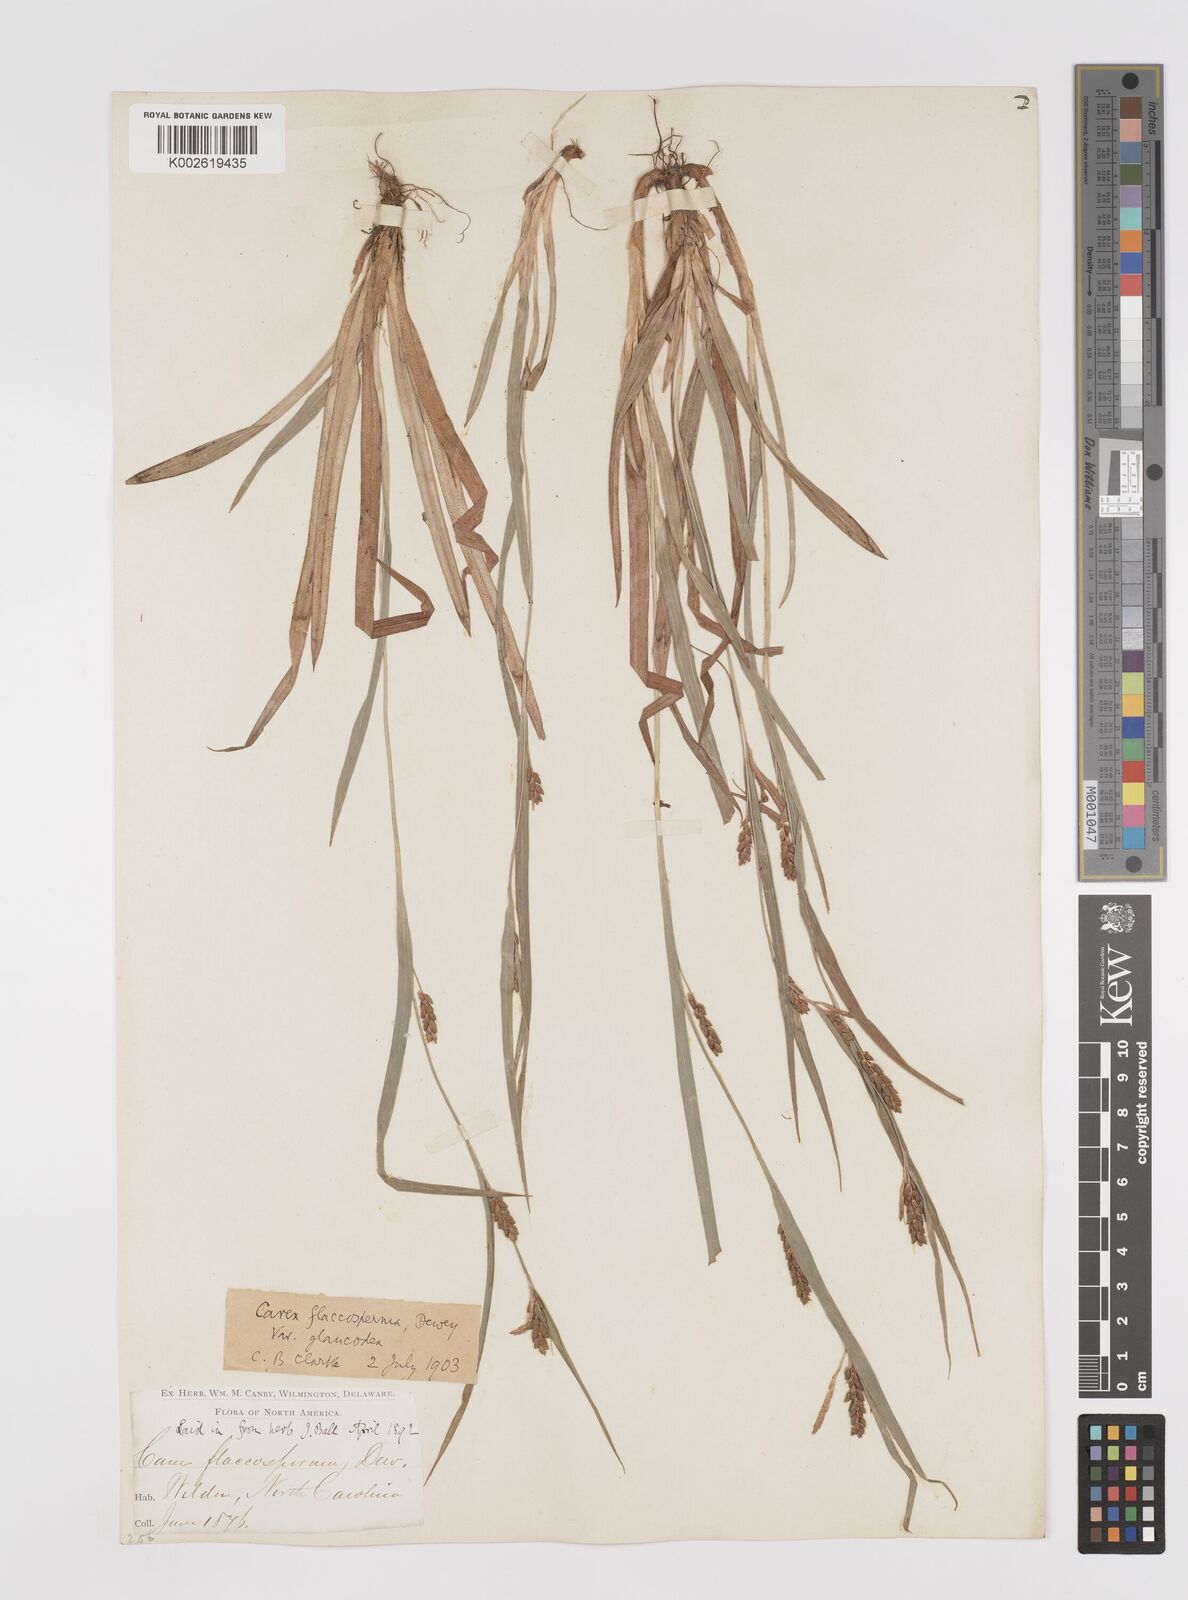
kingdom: Plantae
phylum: Tracheophyta
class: Liliopsida
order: Poales
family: Cyperaceae
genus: Carex
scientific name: Carex glaucodea
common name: Blue sedge
